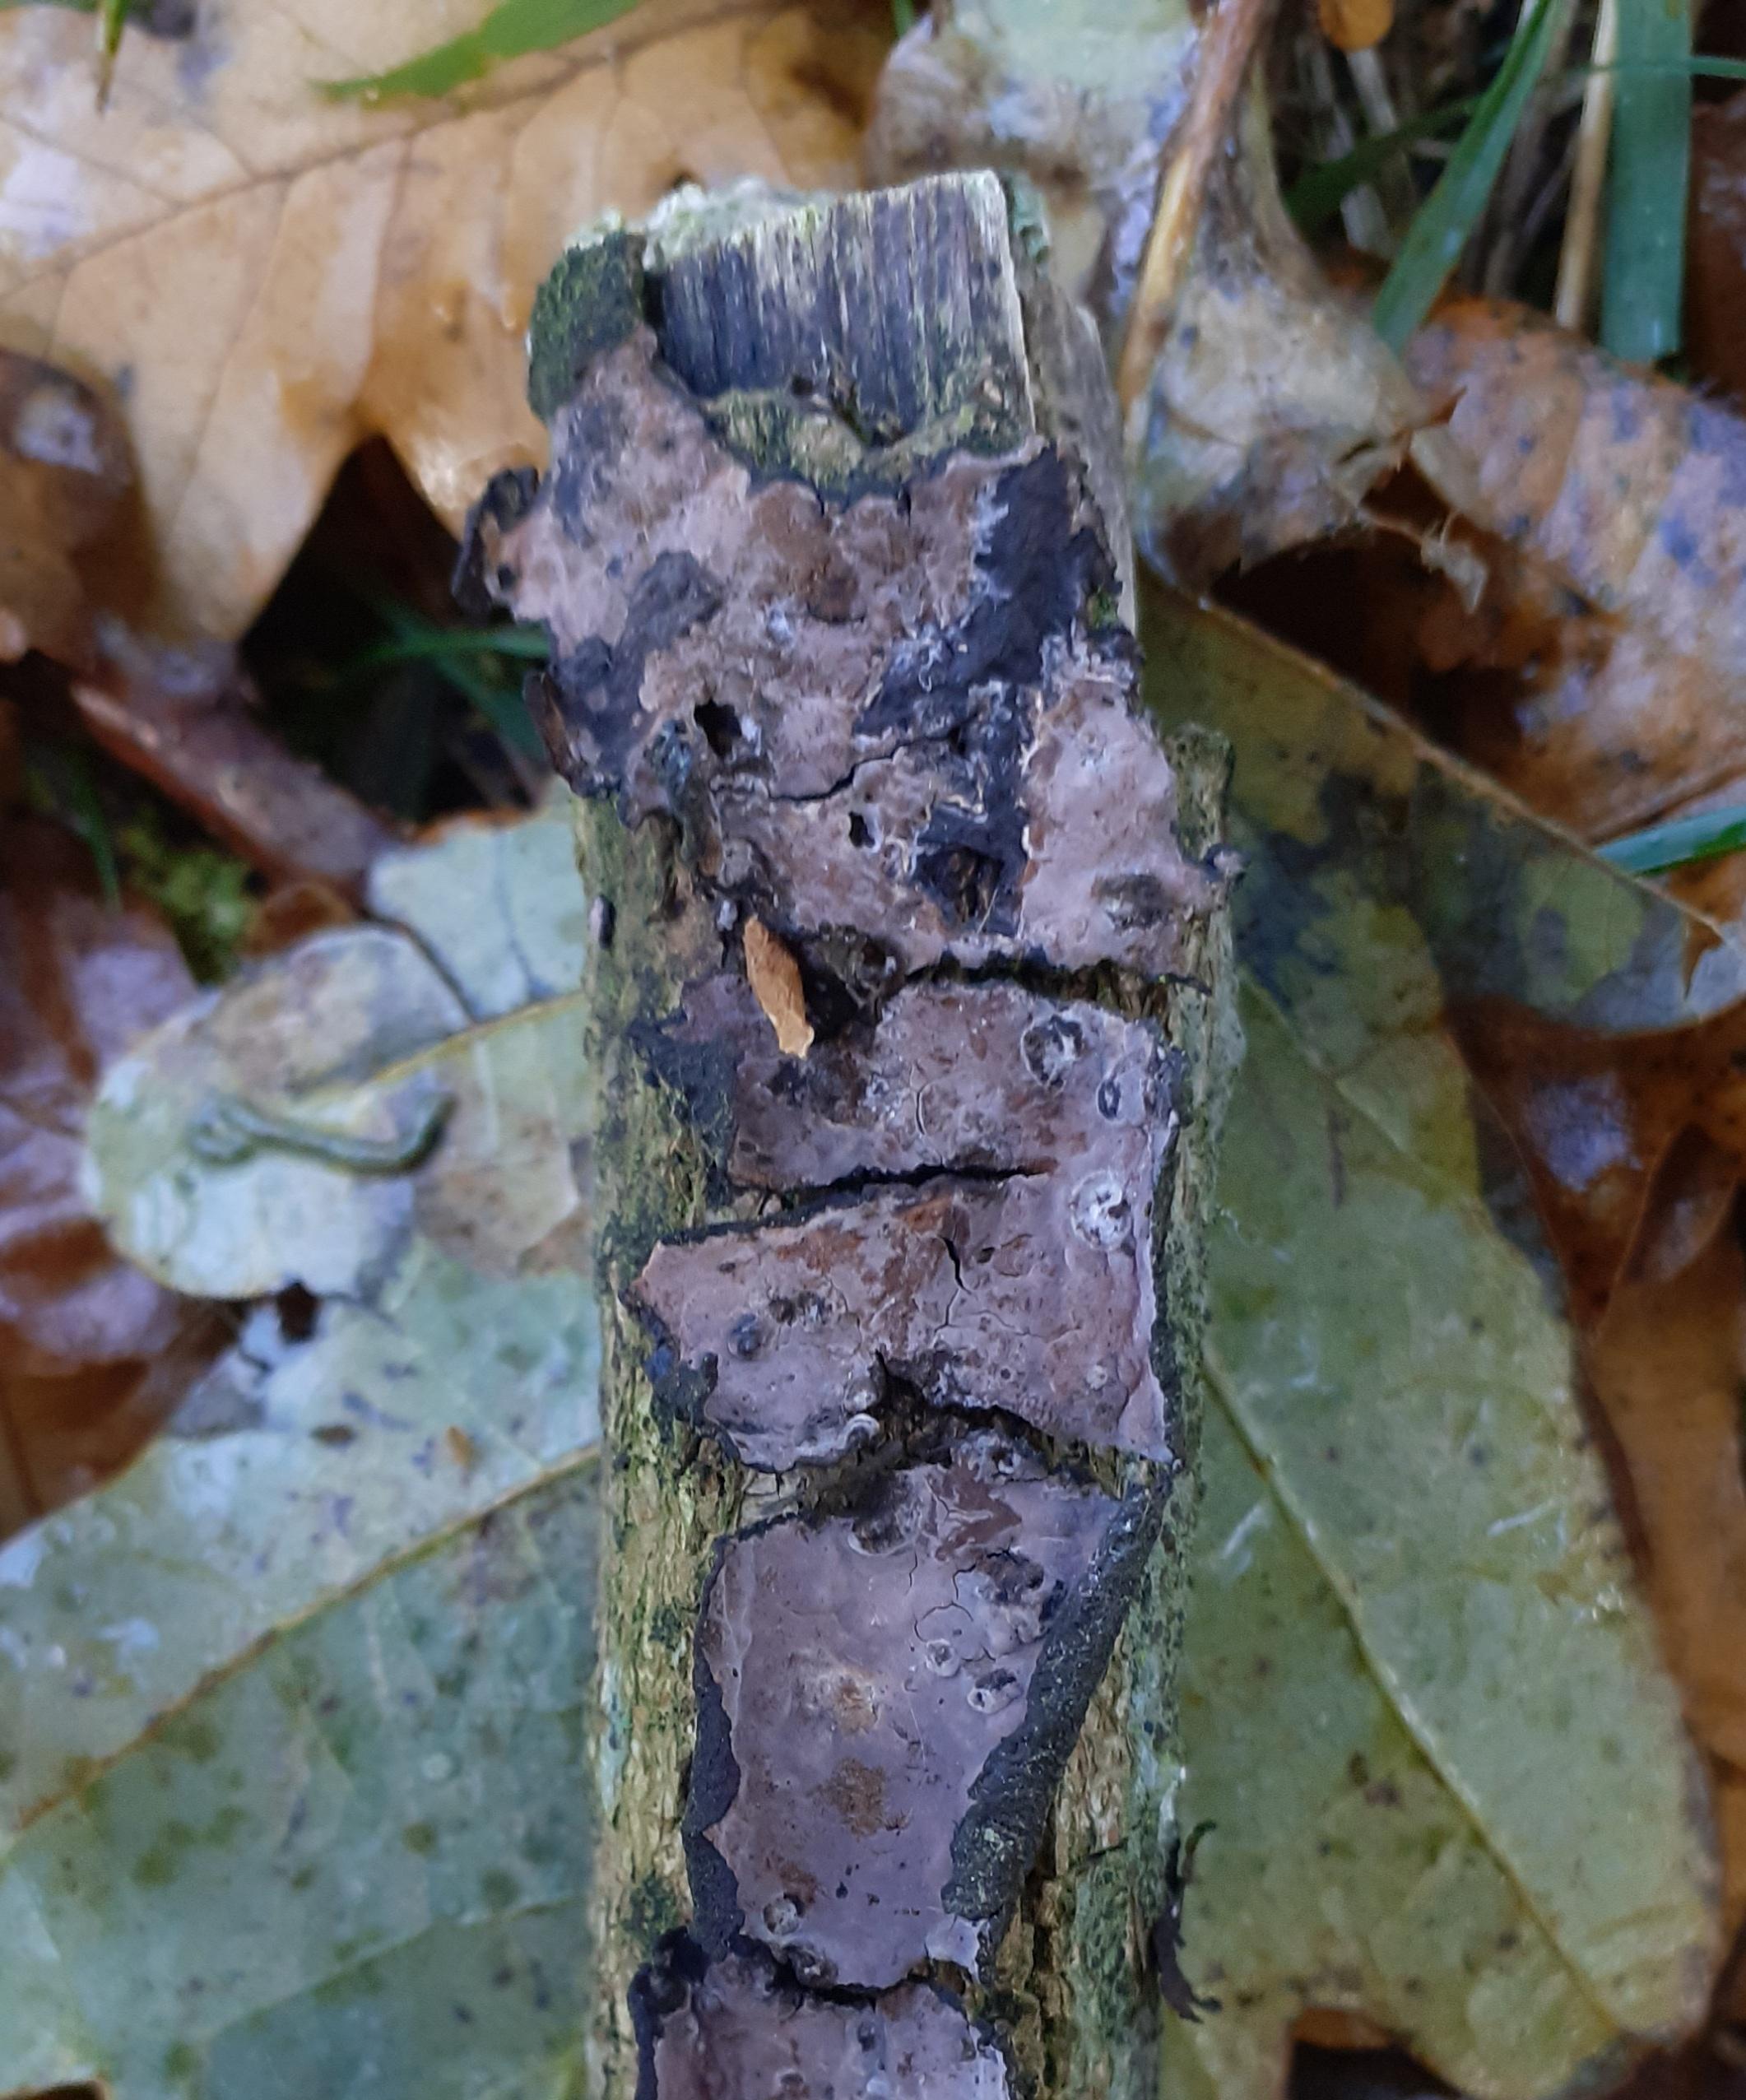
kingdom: Fungi
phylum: Basidiomycota
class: Agaricomycetes
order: Russulales
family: Peniophoraceae
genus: Peniophora
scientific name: Peniophora quercina
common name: ege-voksskind
